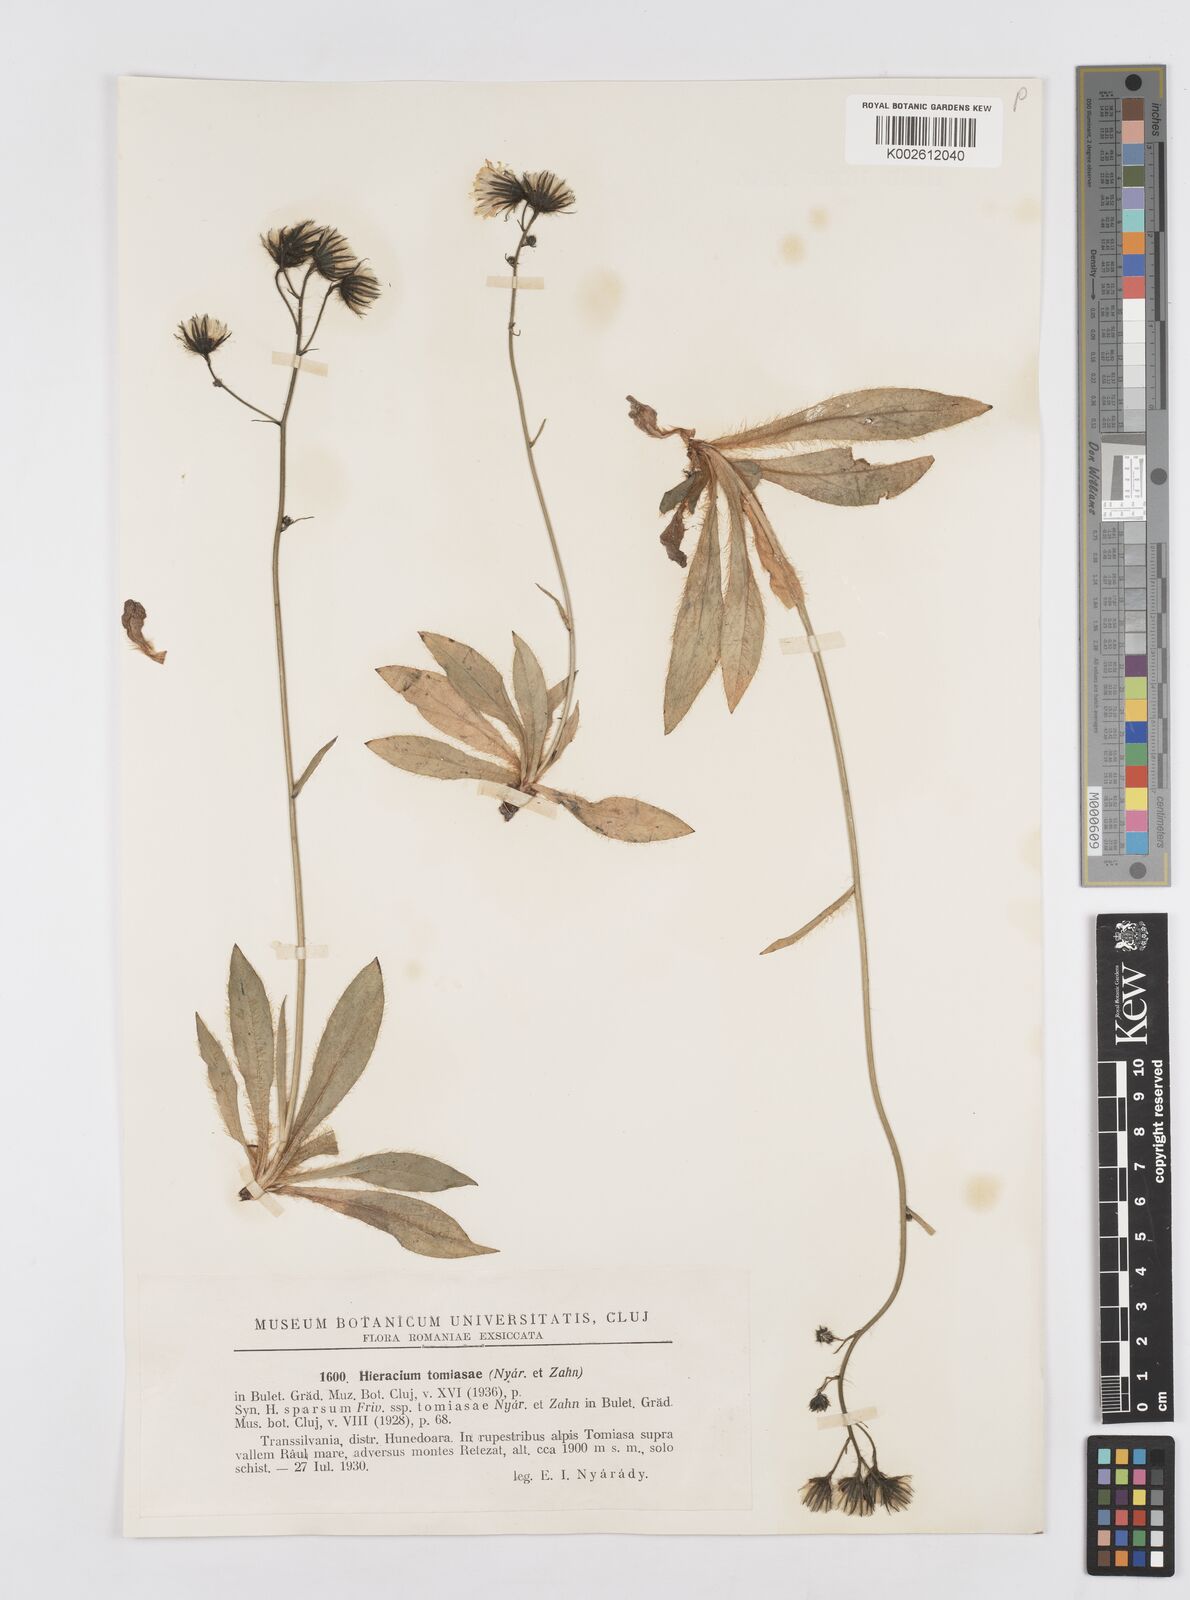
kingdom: Plantae
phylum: Tracheophyta
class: Magnoliopsida
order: Asterales
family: Asteraceae
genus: Hieracium
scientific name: Hieracium sparsum
